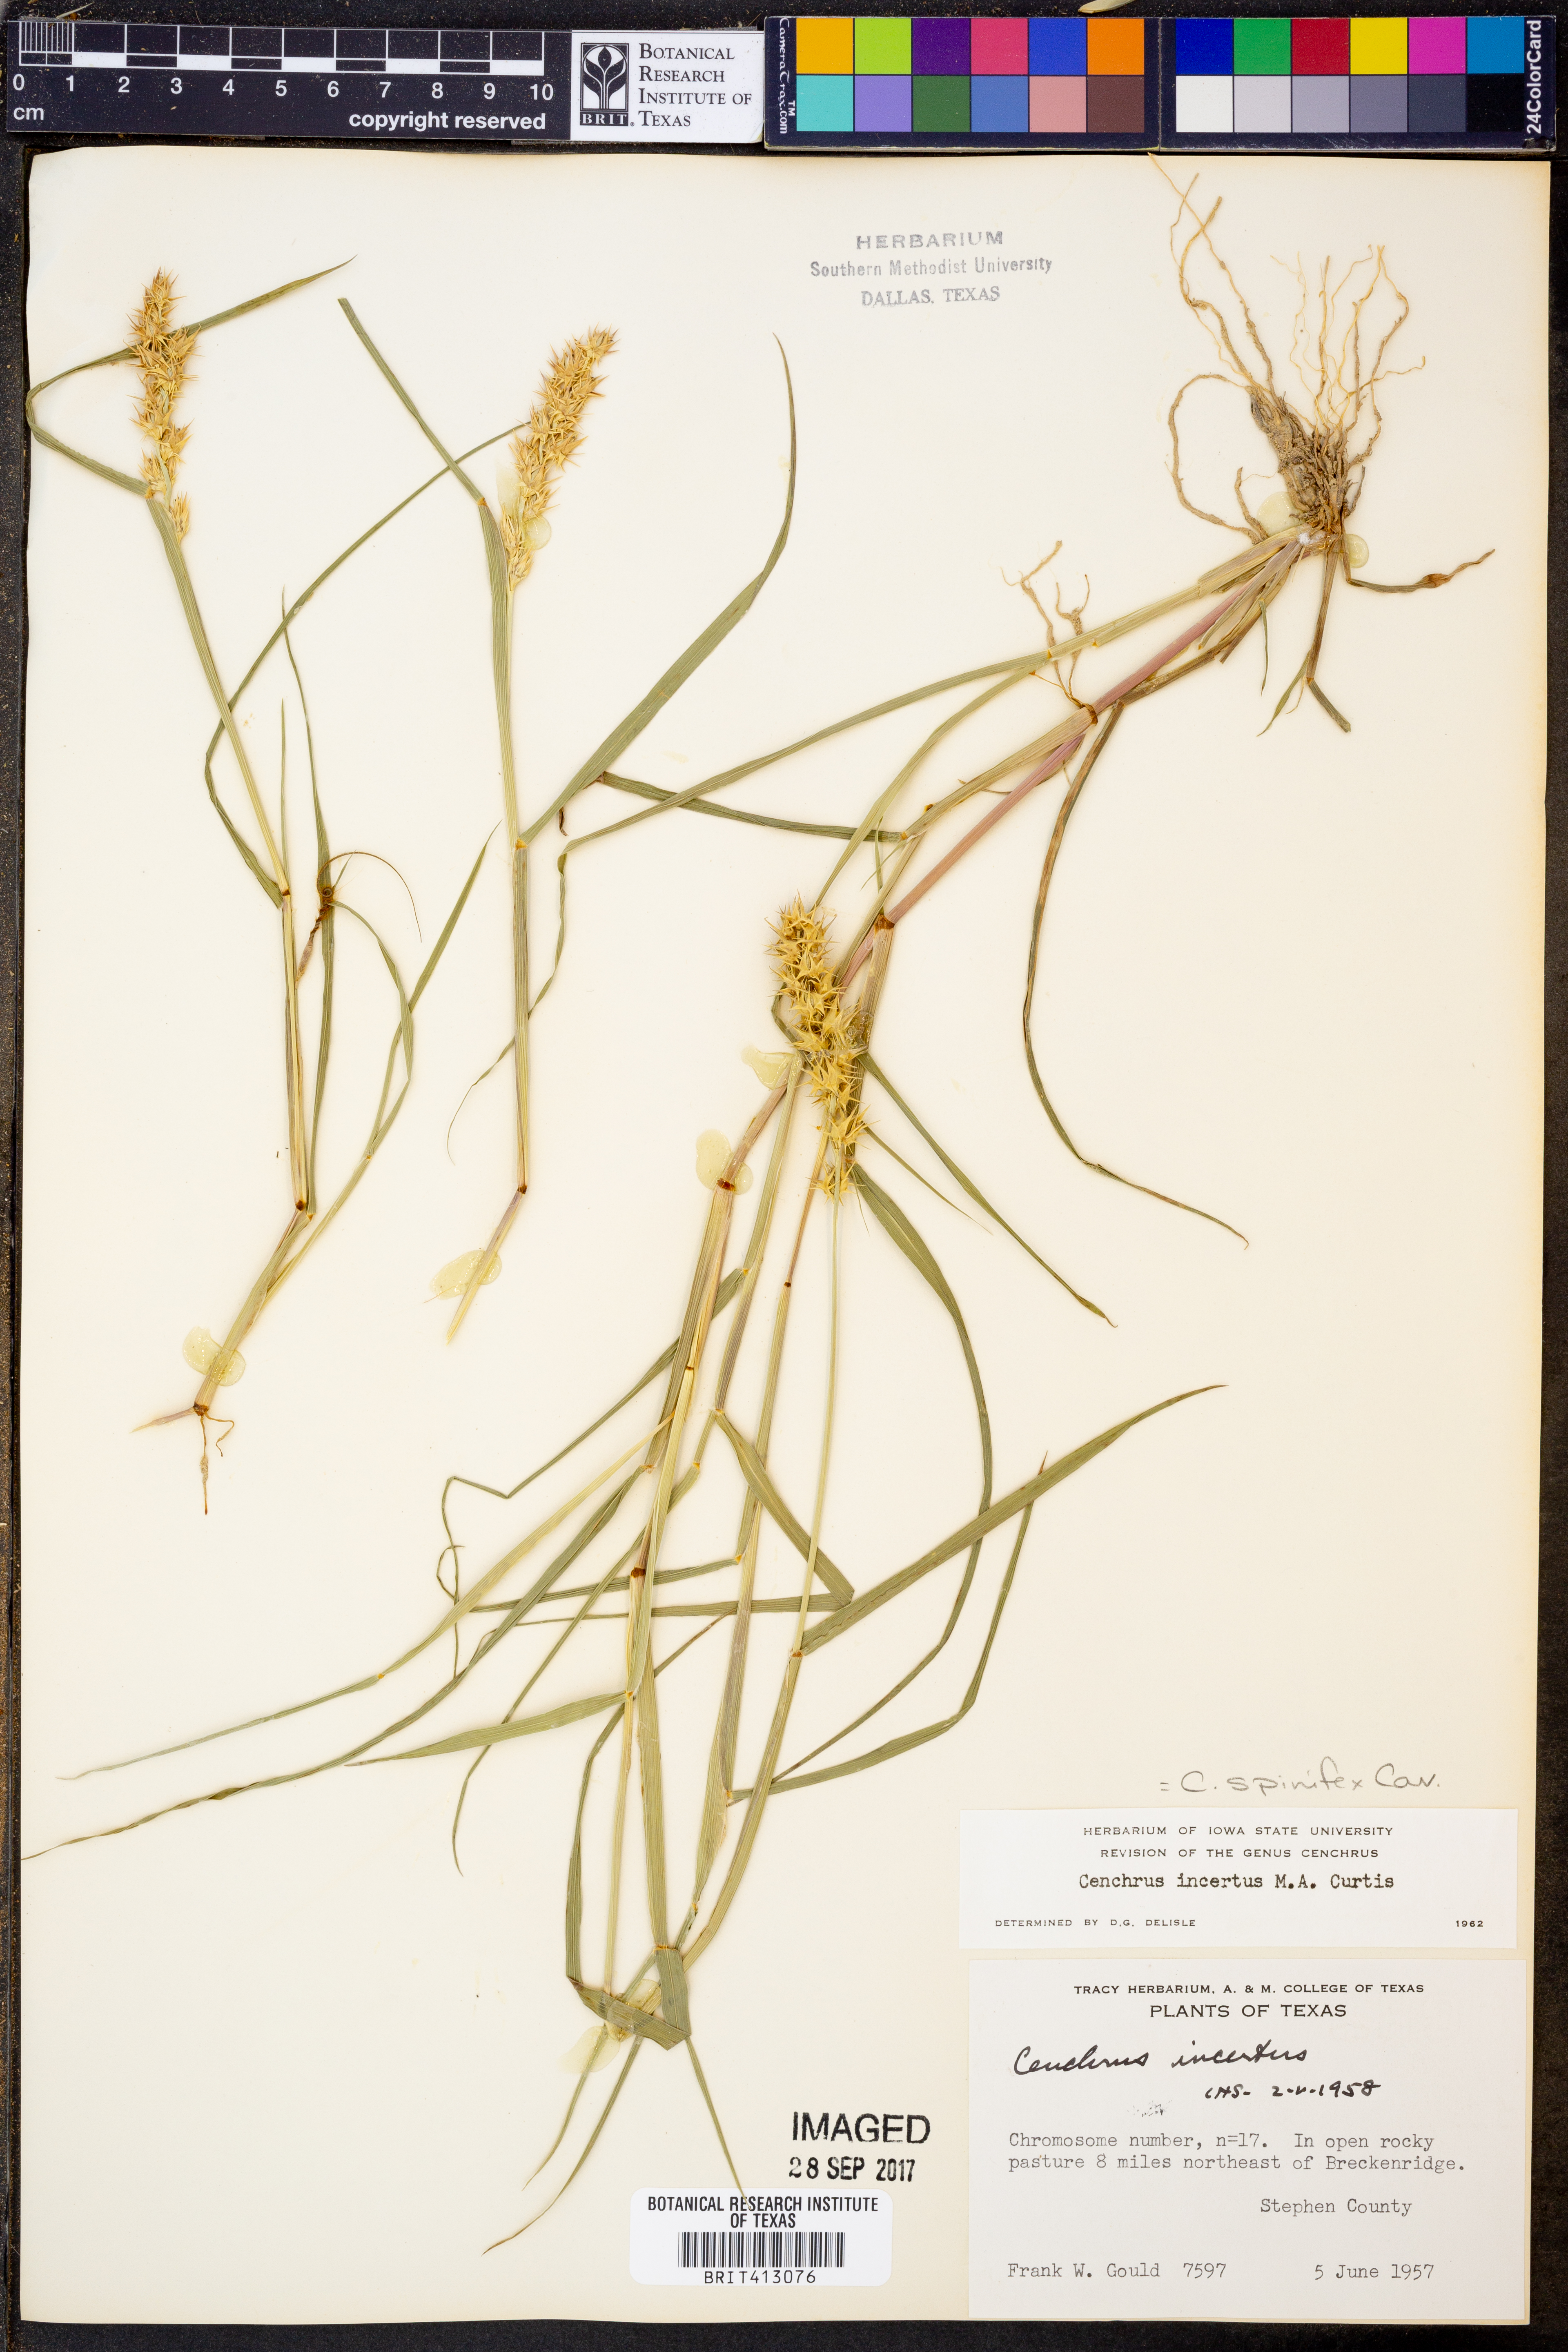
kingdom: Plantae
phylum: Tracheophyta
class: Liliopsida
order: Poales
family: Poaceae
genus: Cenchrus
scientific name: Cenchrus spinifex
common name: Coast sandbur
